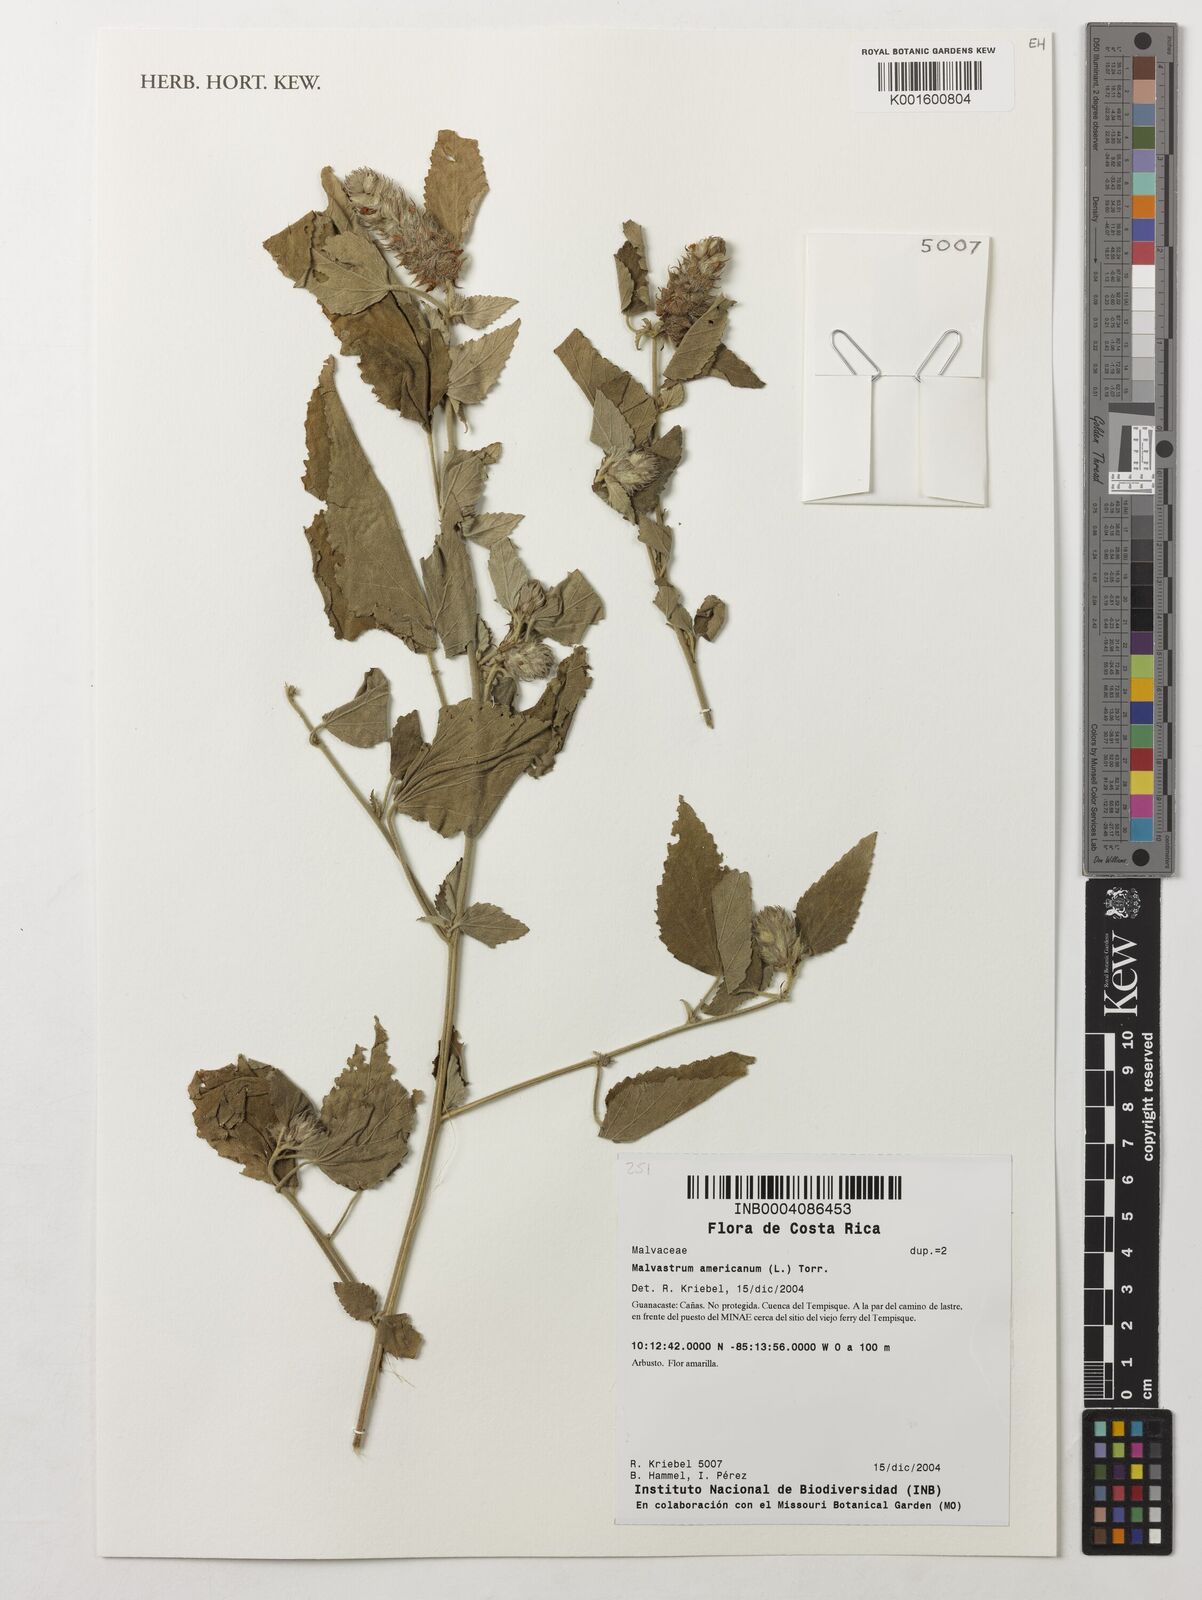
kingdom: Plantae
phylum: Tracheophyta
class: Magnoliopsida
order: Malvales
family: Malvaceae
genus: Malvastrum
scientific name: Malvastrum americanum
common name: Spiked malvastrum
